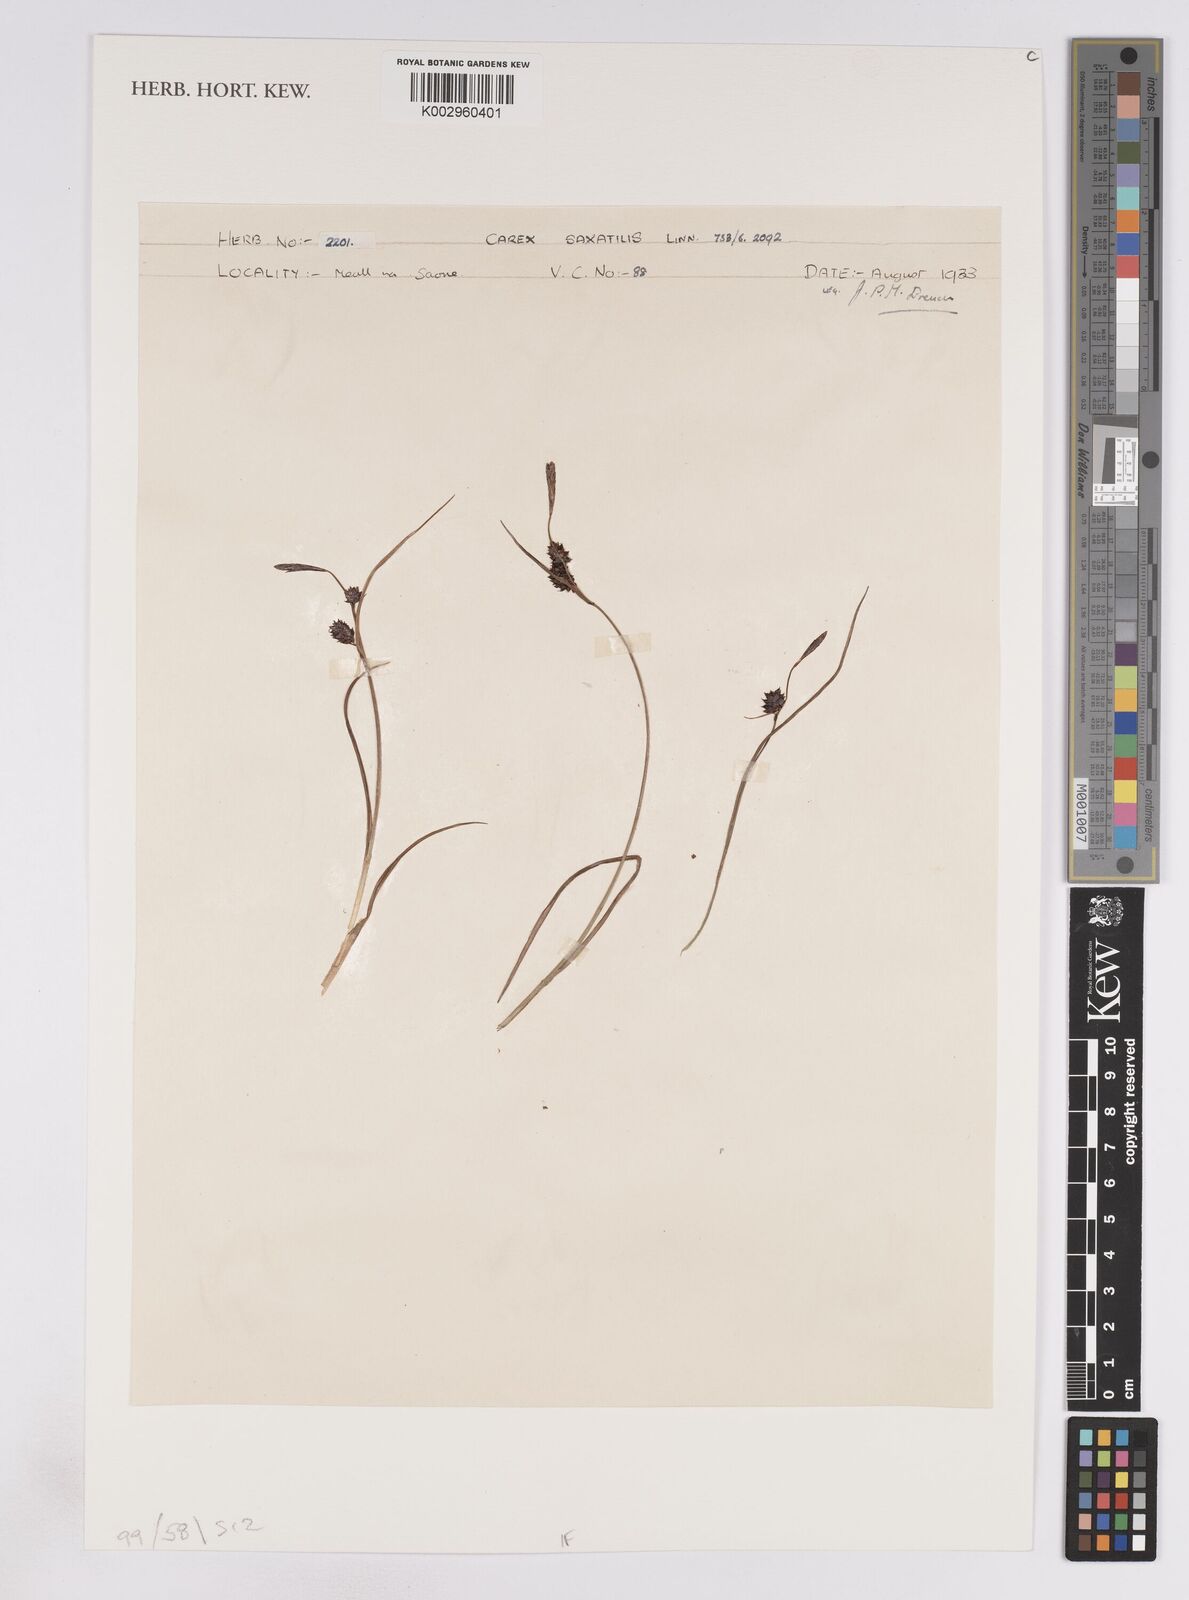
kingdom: Plantae
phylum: Tracheophyta
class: Liliopsida
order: Poales
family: Cyperaceae
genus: Carex
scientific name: Carex saxatilis
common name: Russet sedge
